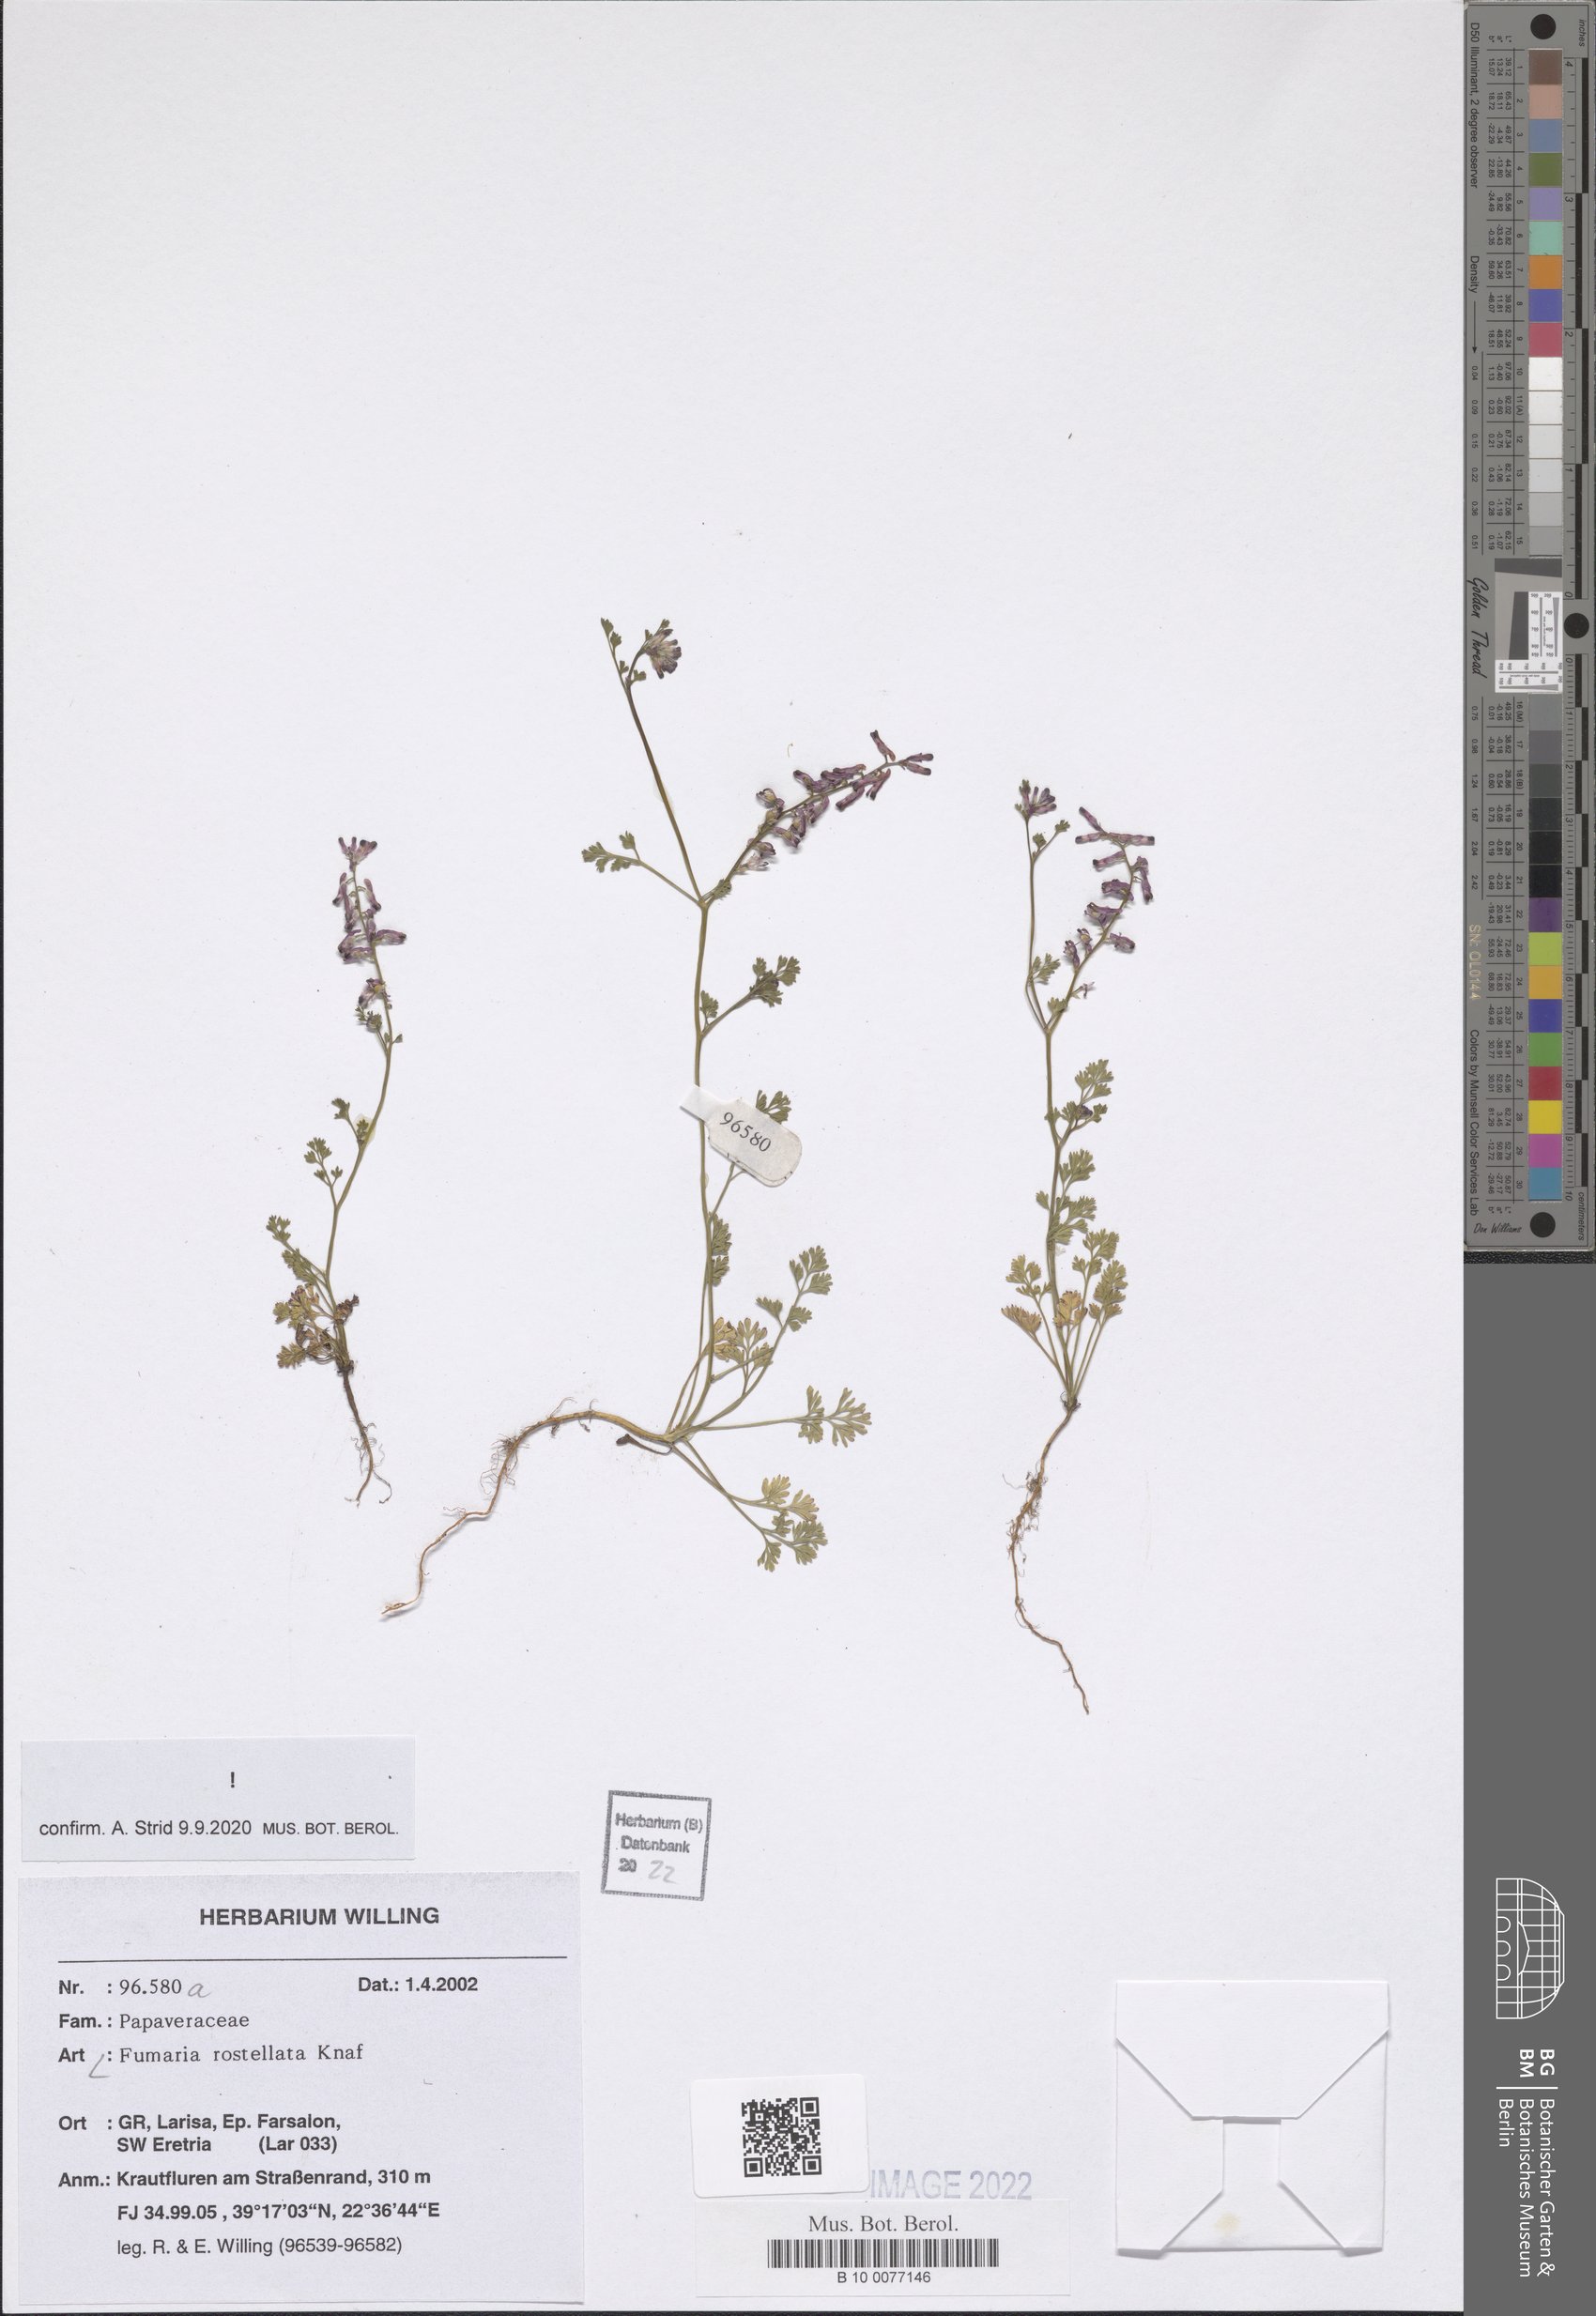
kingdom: Plantae
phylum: Tracheophyta
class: Magnoliopsida
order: Ranunculales
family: Papaveraceae
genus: Fumaria
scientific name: Fumaria rostellata
